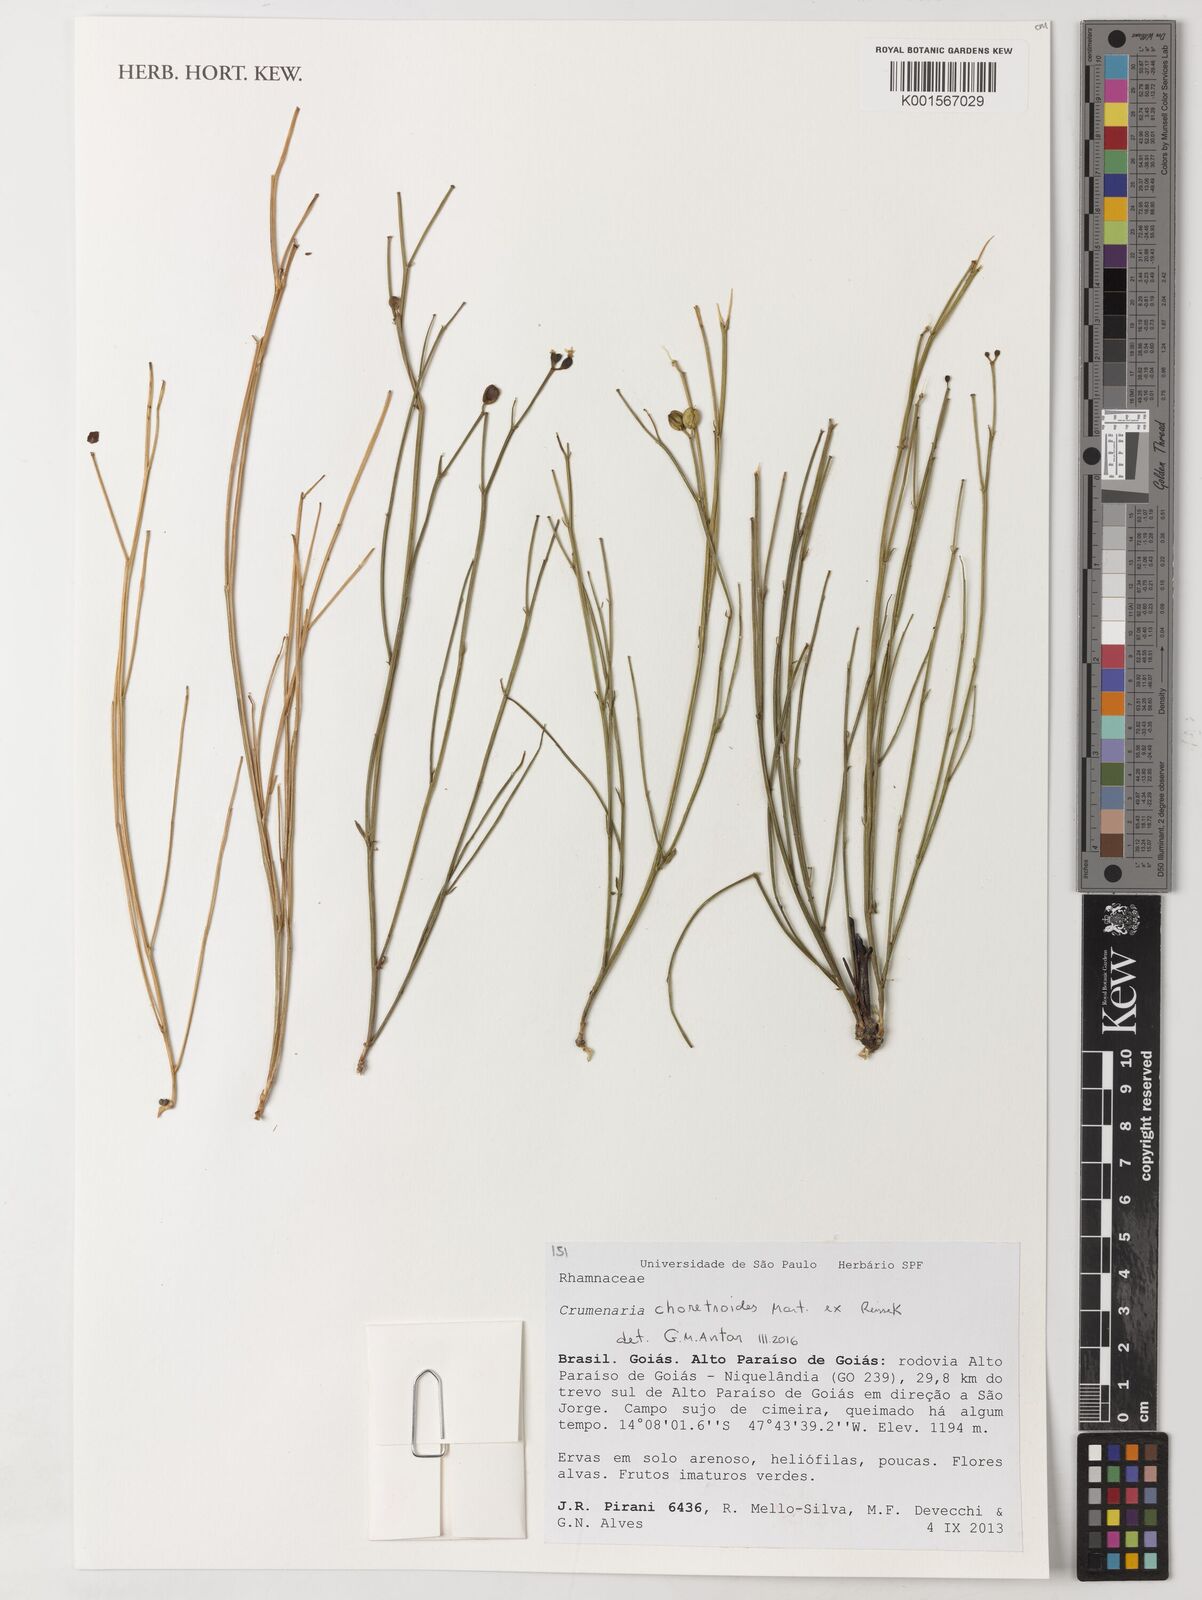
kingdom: Plantae
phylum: Tracheophyta
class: Magnoliopsida
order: Rosales
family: Rhamnaceae
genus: Crumenaria
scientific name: Crumenaria choretroides
